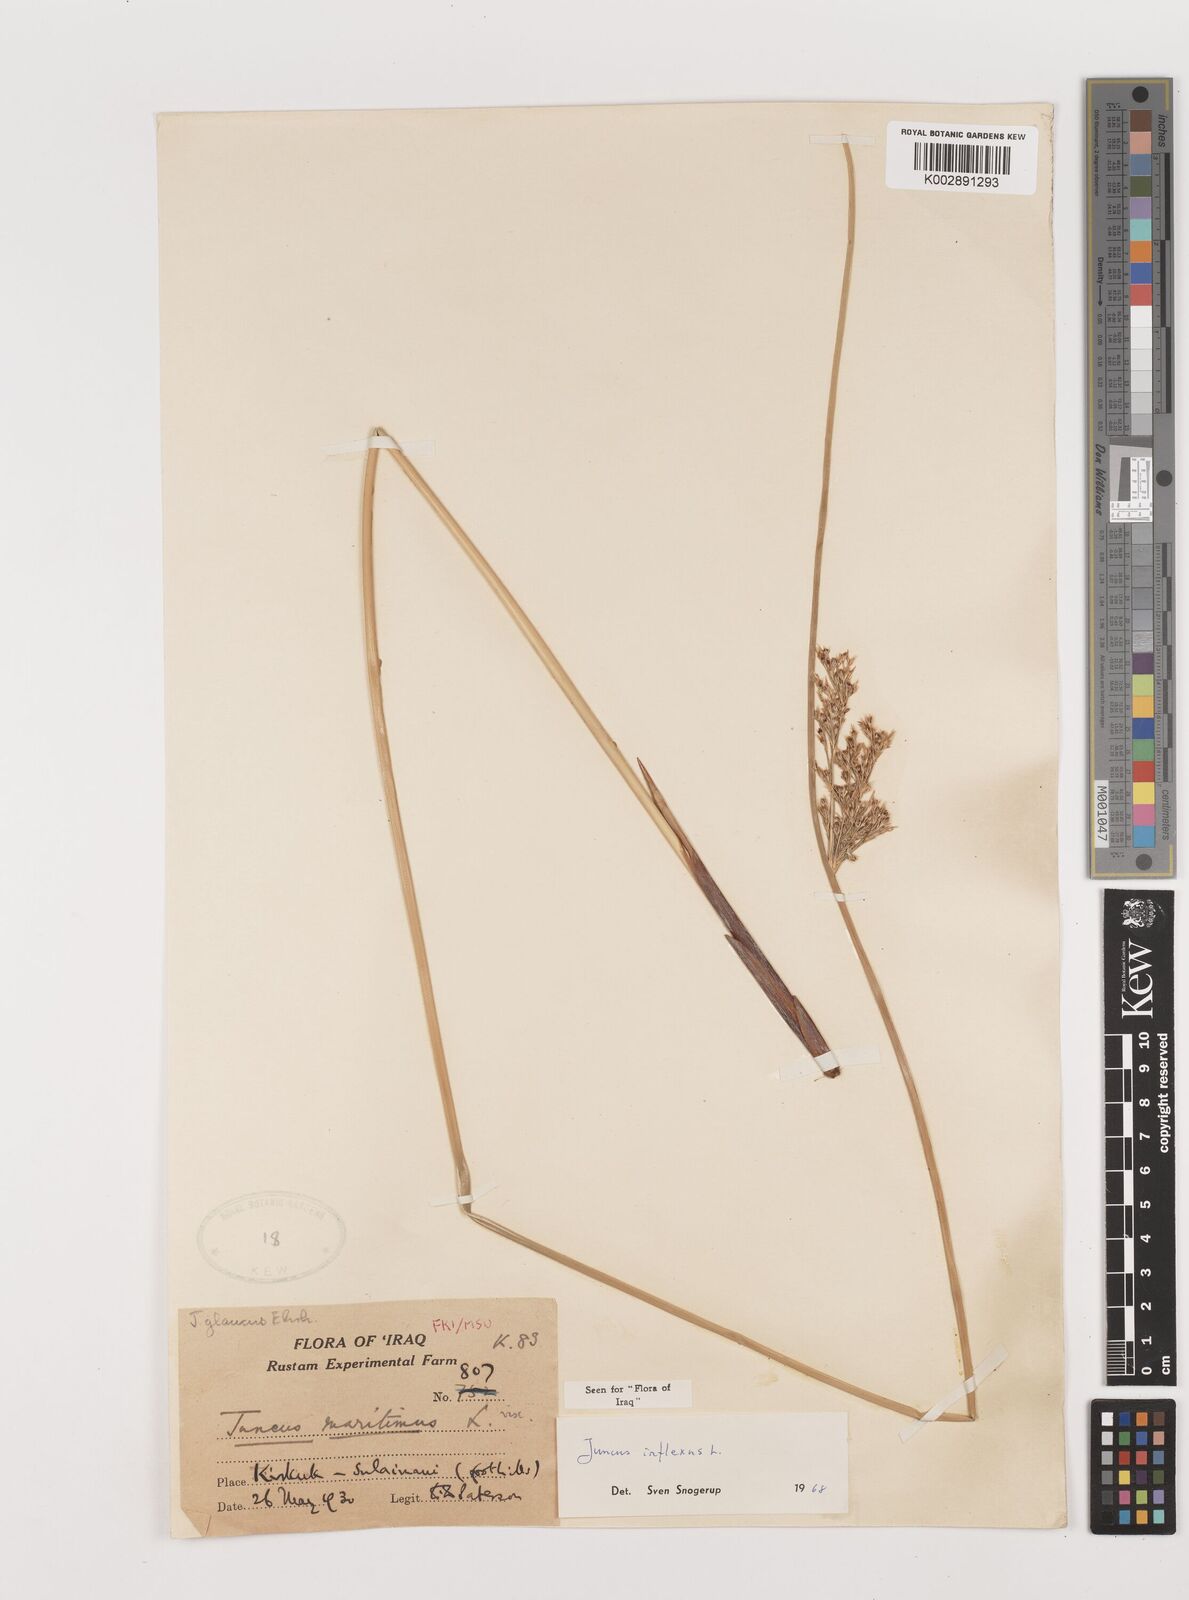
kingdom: Plantae
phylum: Tracheophyta
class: Liliopsida
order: Poales
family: Juncaceae
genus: Juncus
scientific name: Juncus inflexus
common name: Hard rush
